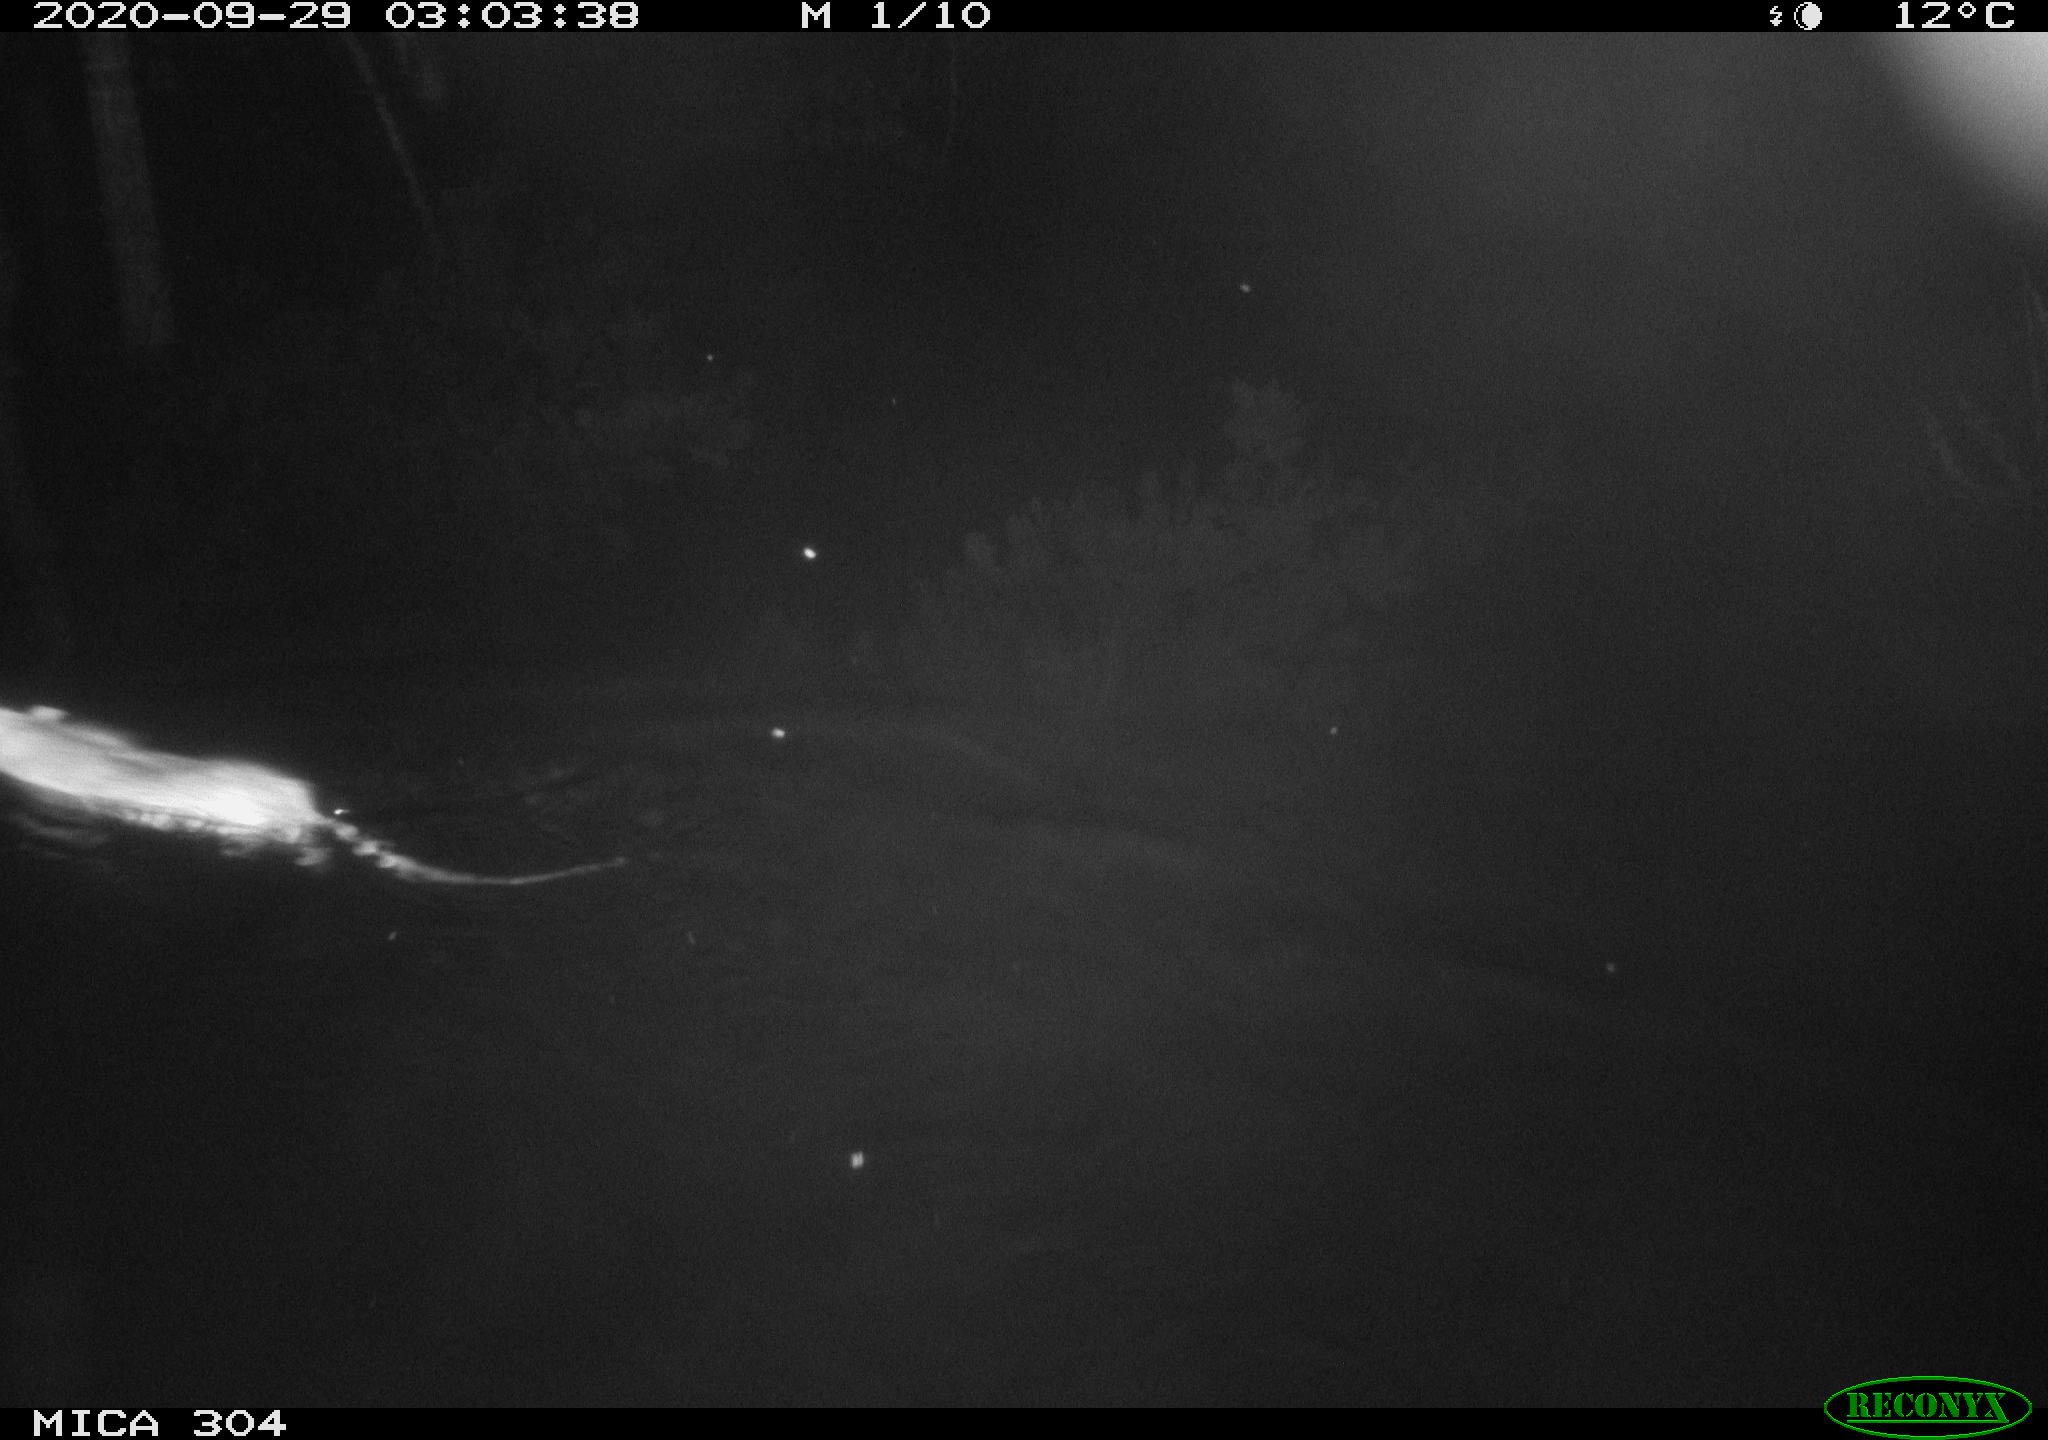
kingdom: Animalia
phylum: Chordata
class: Mammalia
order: Rodentia
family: Muridae
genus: Rattus
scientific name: Rattus norvegicus
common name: Brown rat
